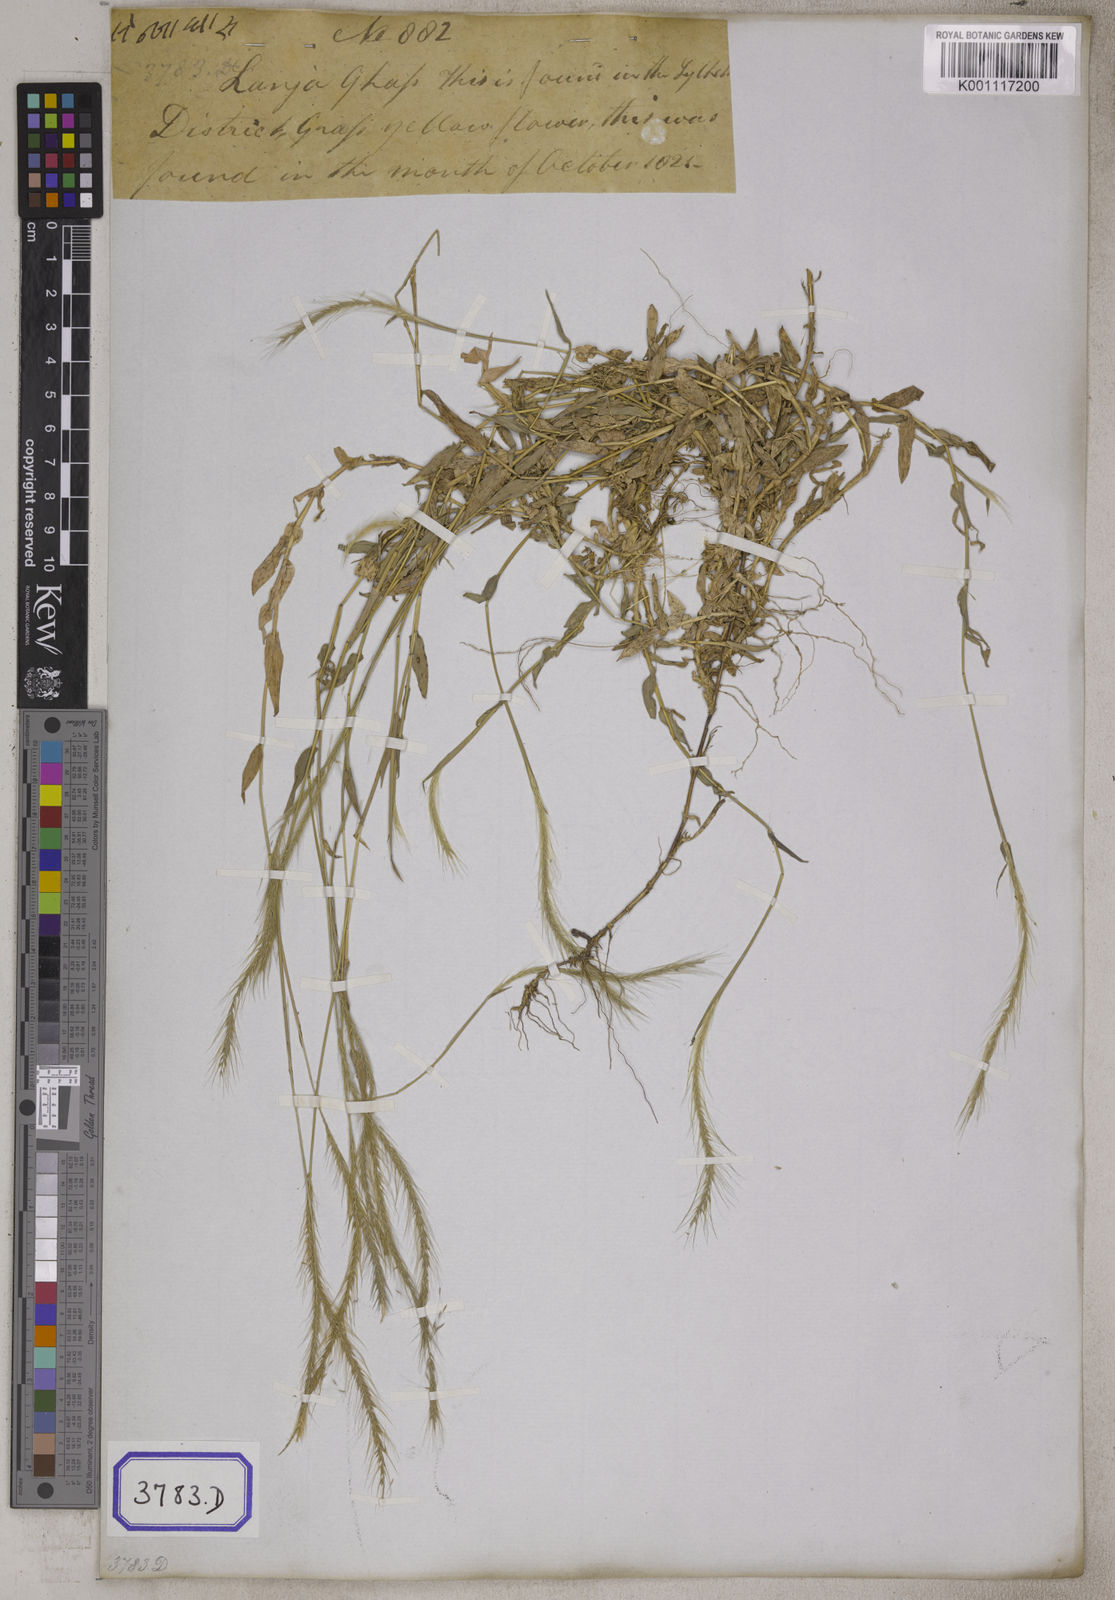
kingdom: Plantae
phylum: Tracheophyta
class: Liliopsida
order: Poales
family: Poaceae
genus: Perotis
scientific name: Perotis indica
